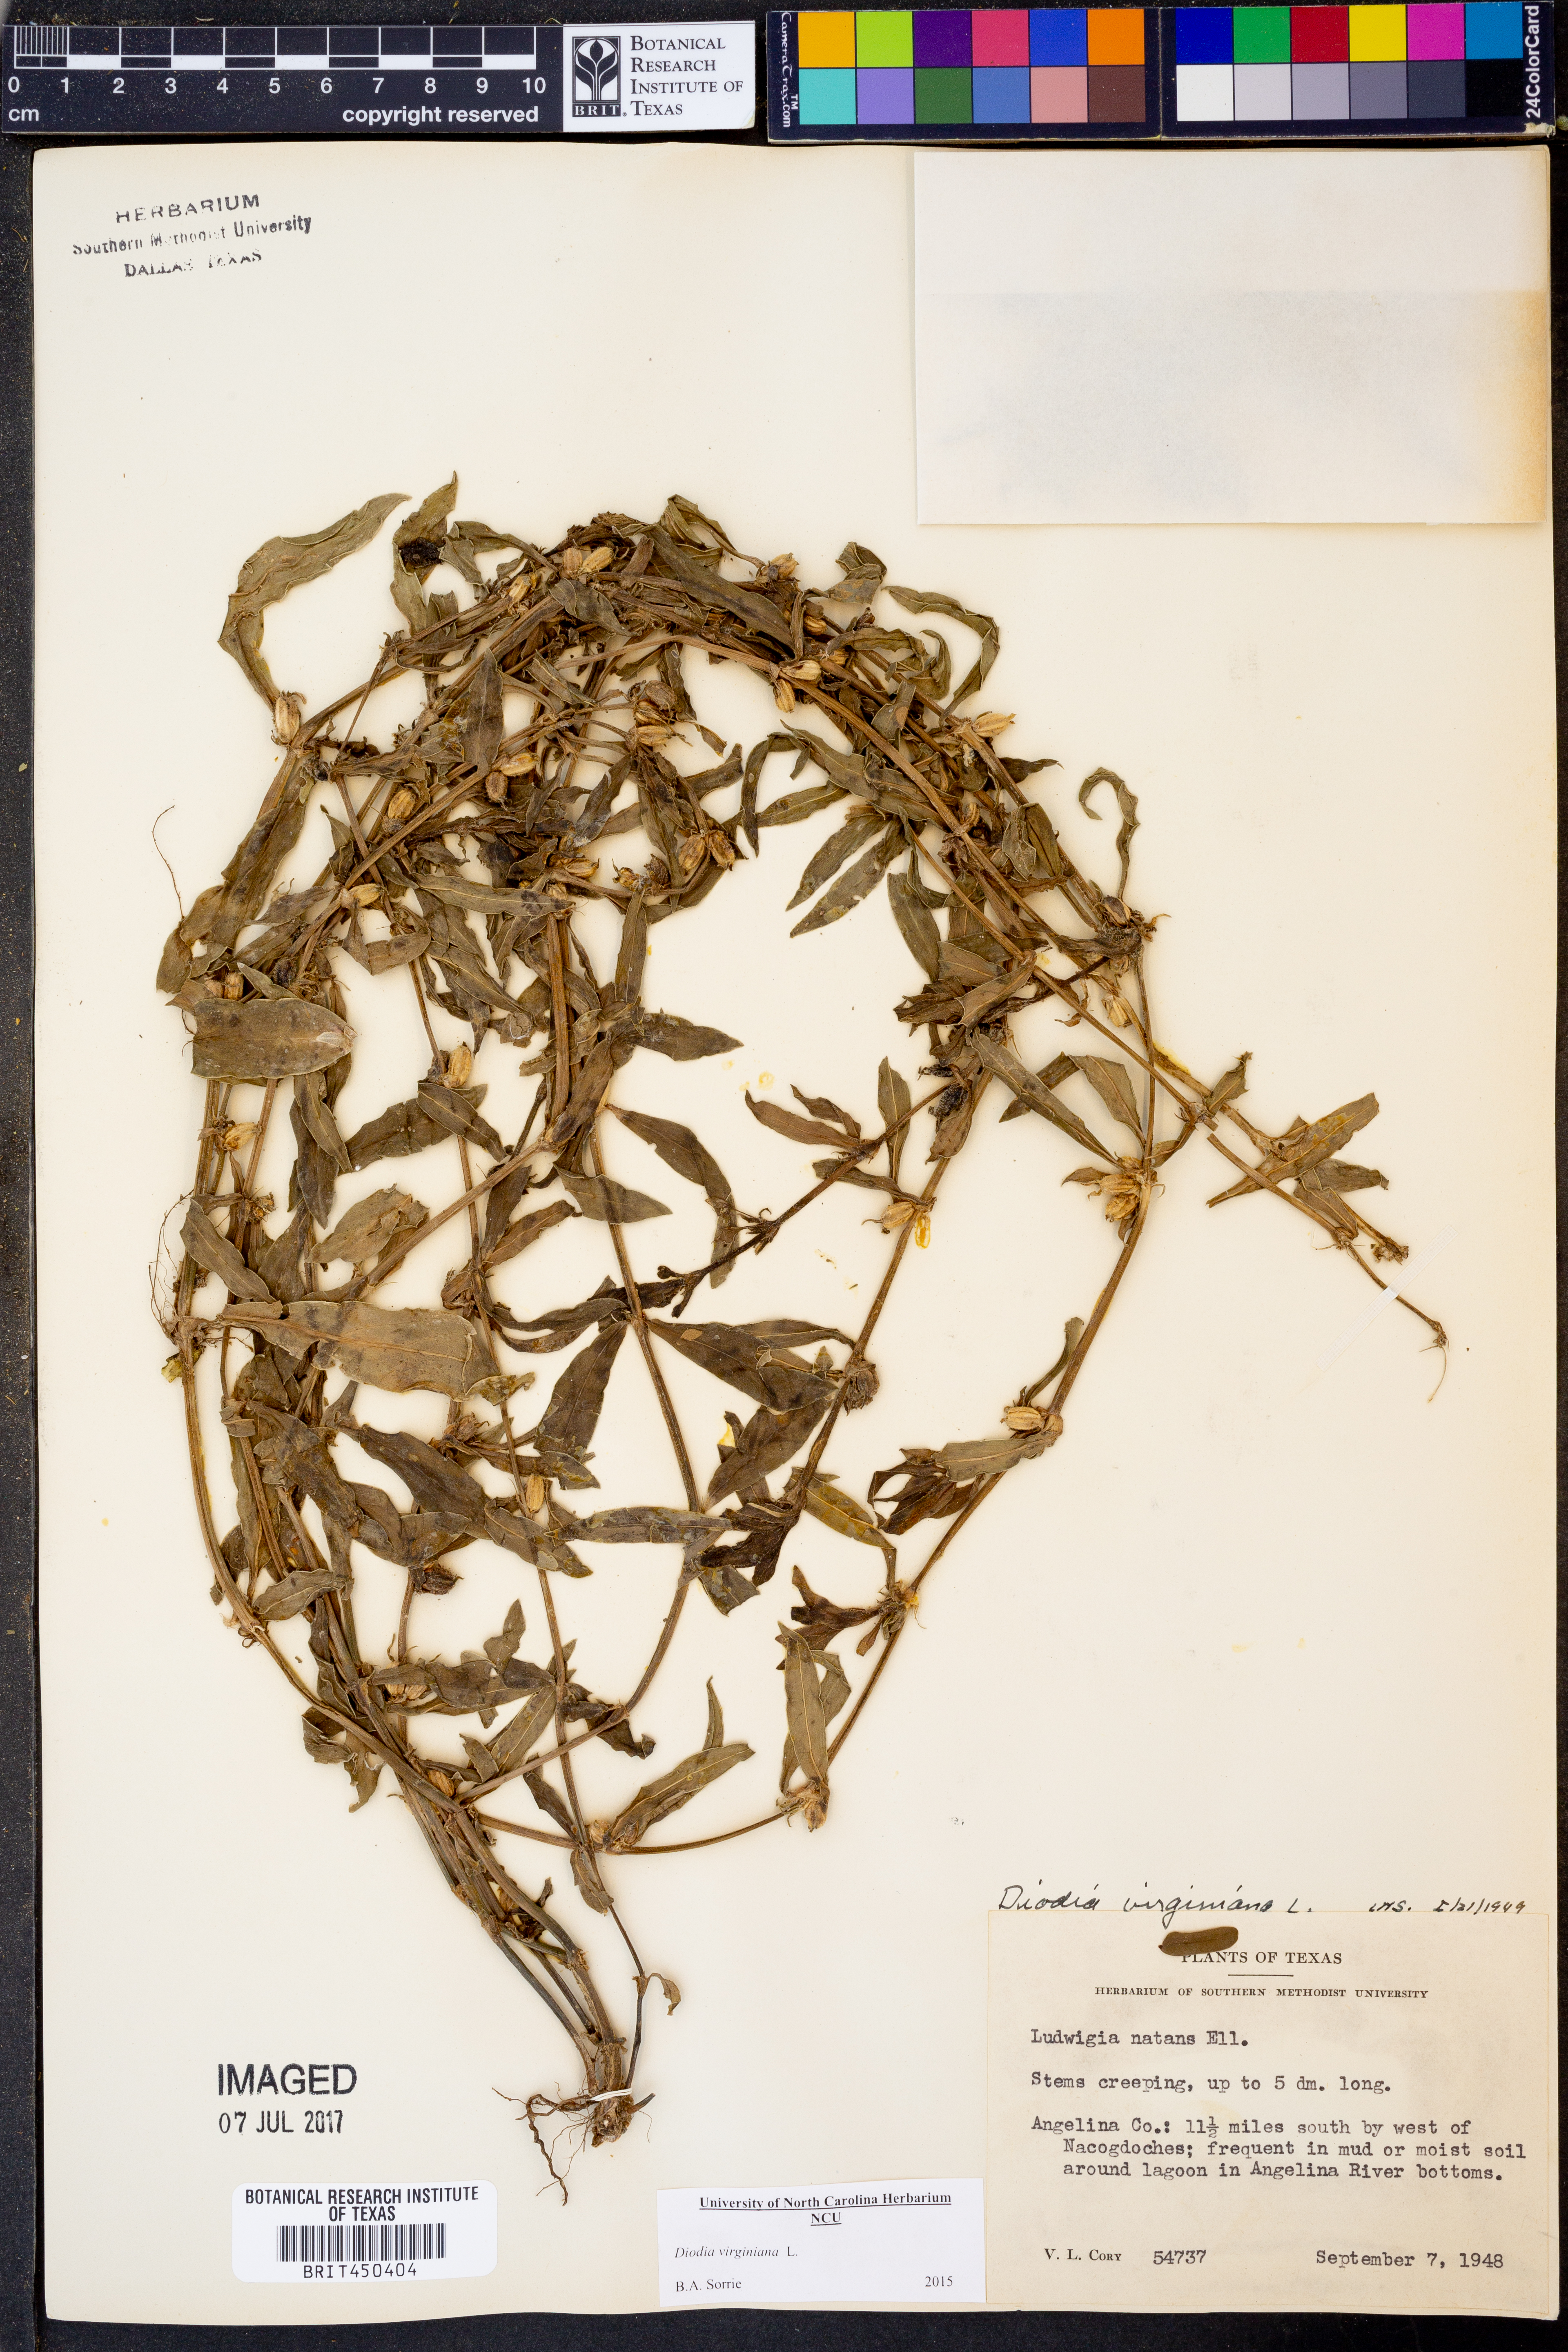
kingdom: Plantae
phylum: Tracheophyta
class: Magnoliopsida
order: Gentianales
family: Rubiaceae
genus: Diodia
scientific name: Diodia virginiana
